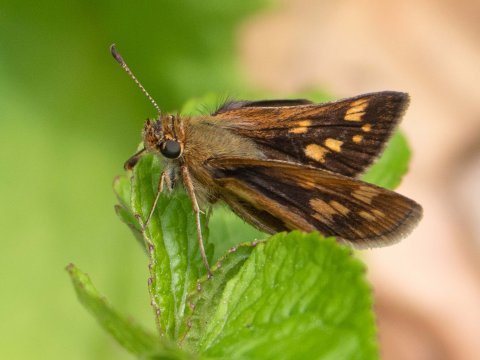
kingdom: Animalia
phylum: Arthropoda
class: Insecta
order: Lepidoptera
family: Hesperiidae
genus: Polites
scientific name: Polites coras
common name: Peck's Skipper
